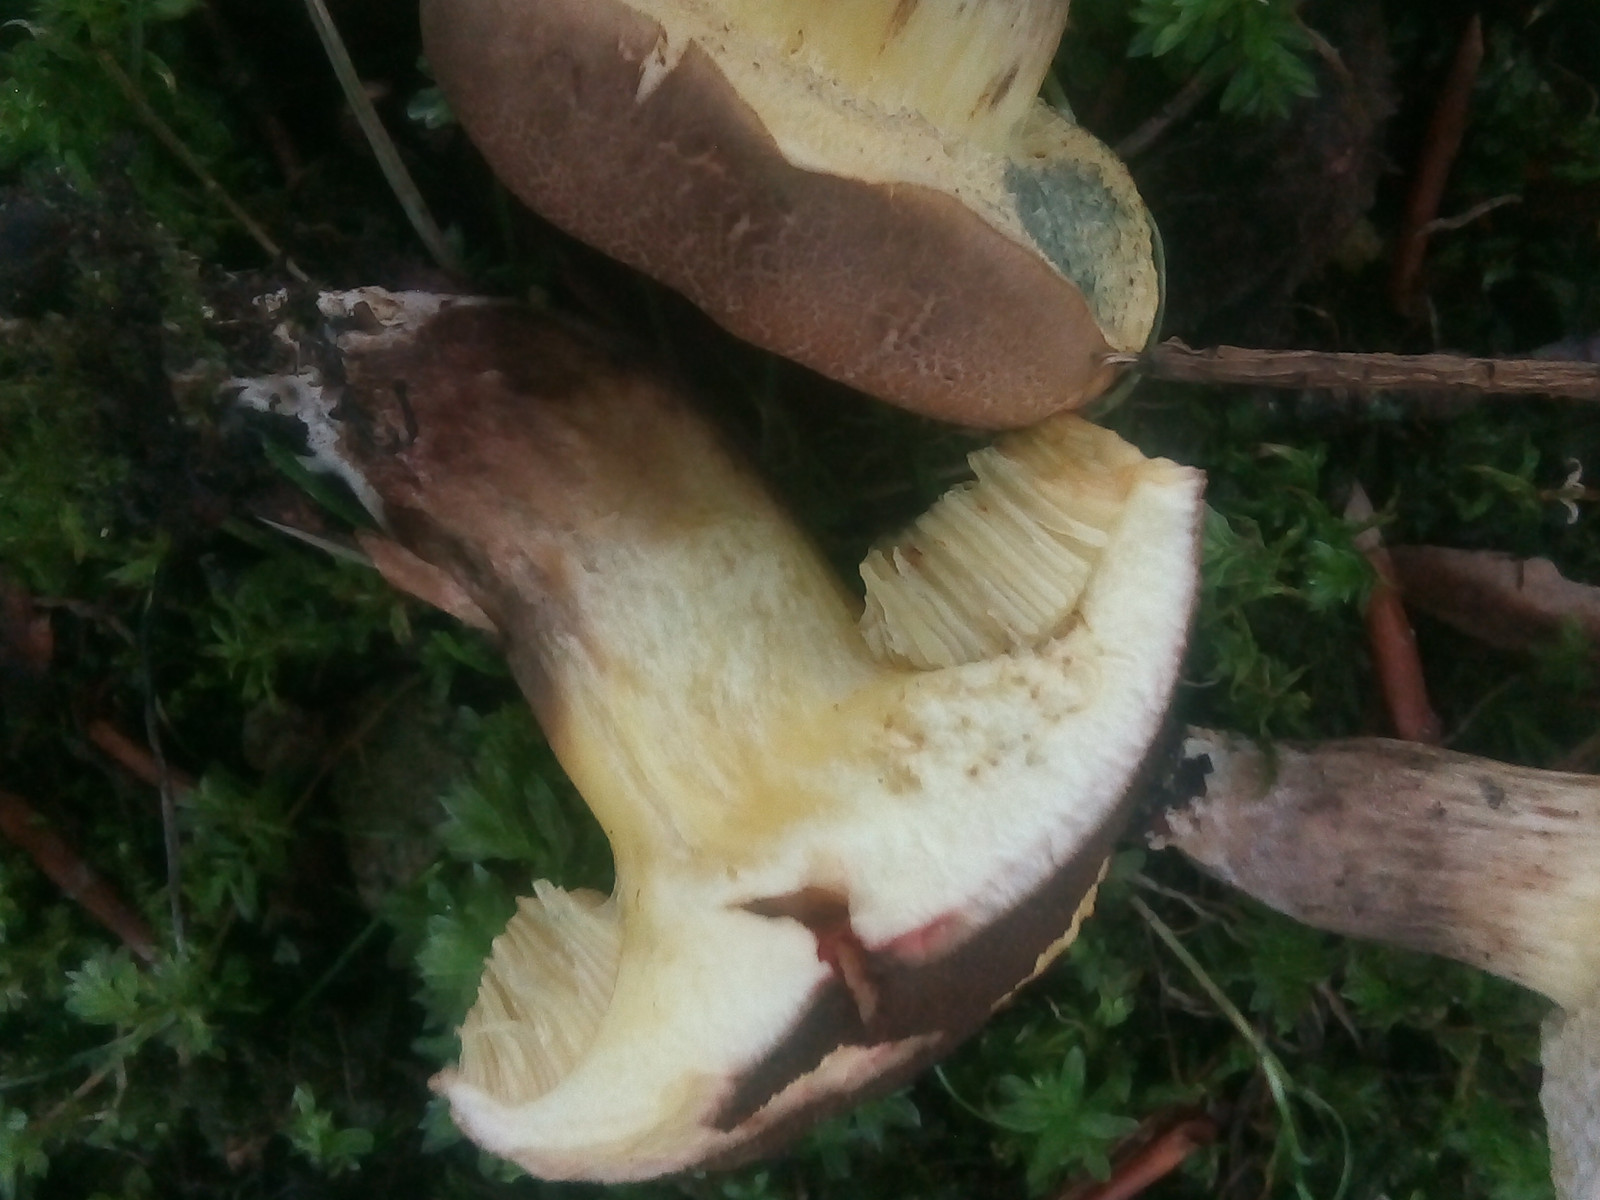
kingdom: Fungi
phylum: Basidiomycota
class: Agaricomycetes
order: Boletales
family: Boletaceae
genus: Xerocomellus
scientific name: Xerocomellus porosporus
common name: hvidsprukken rørhat
